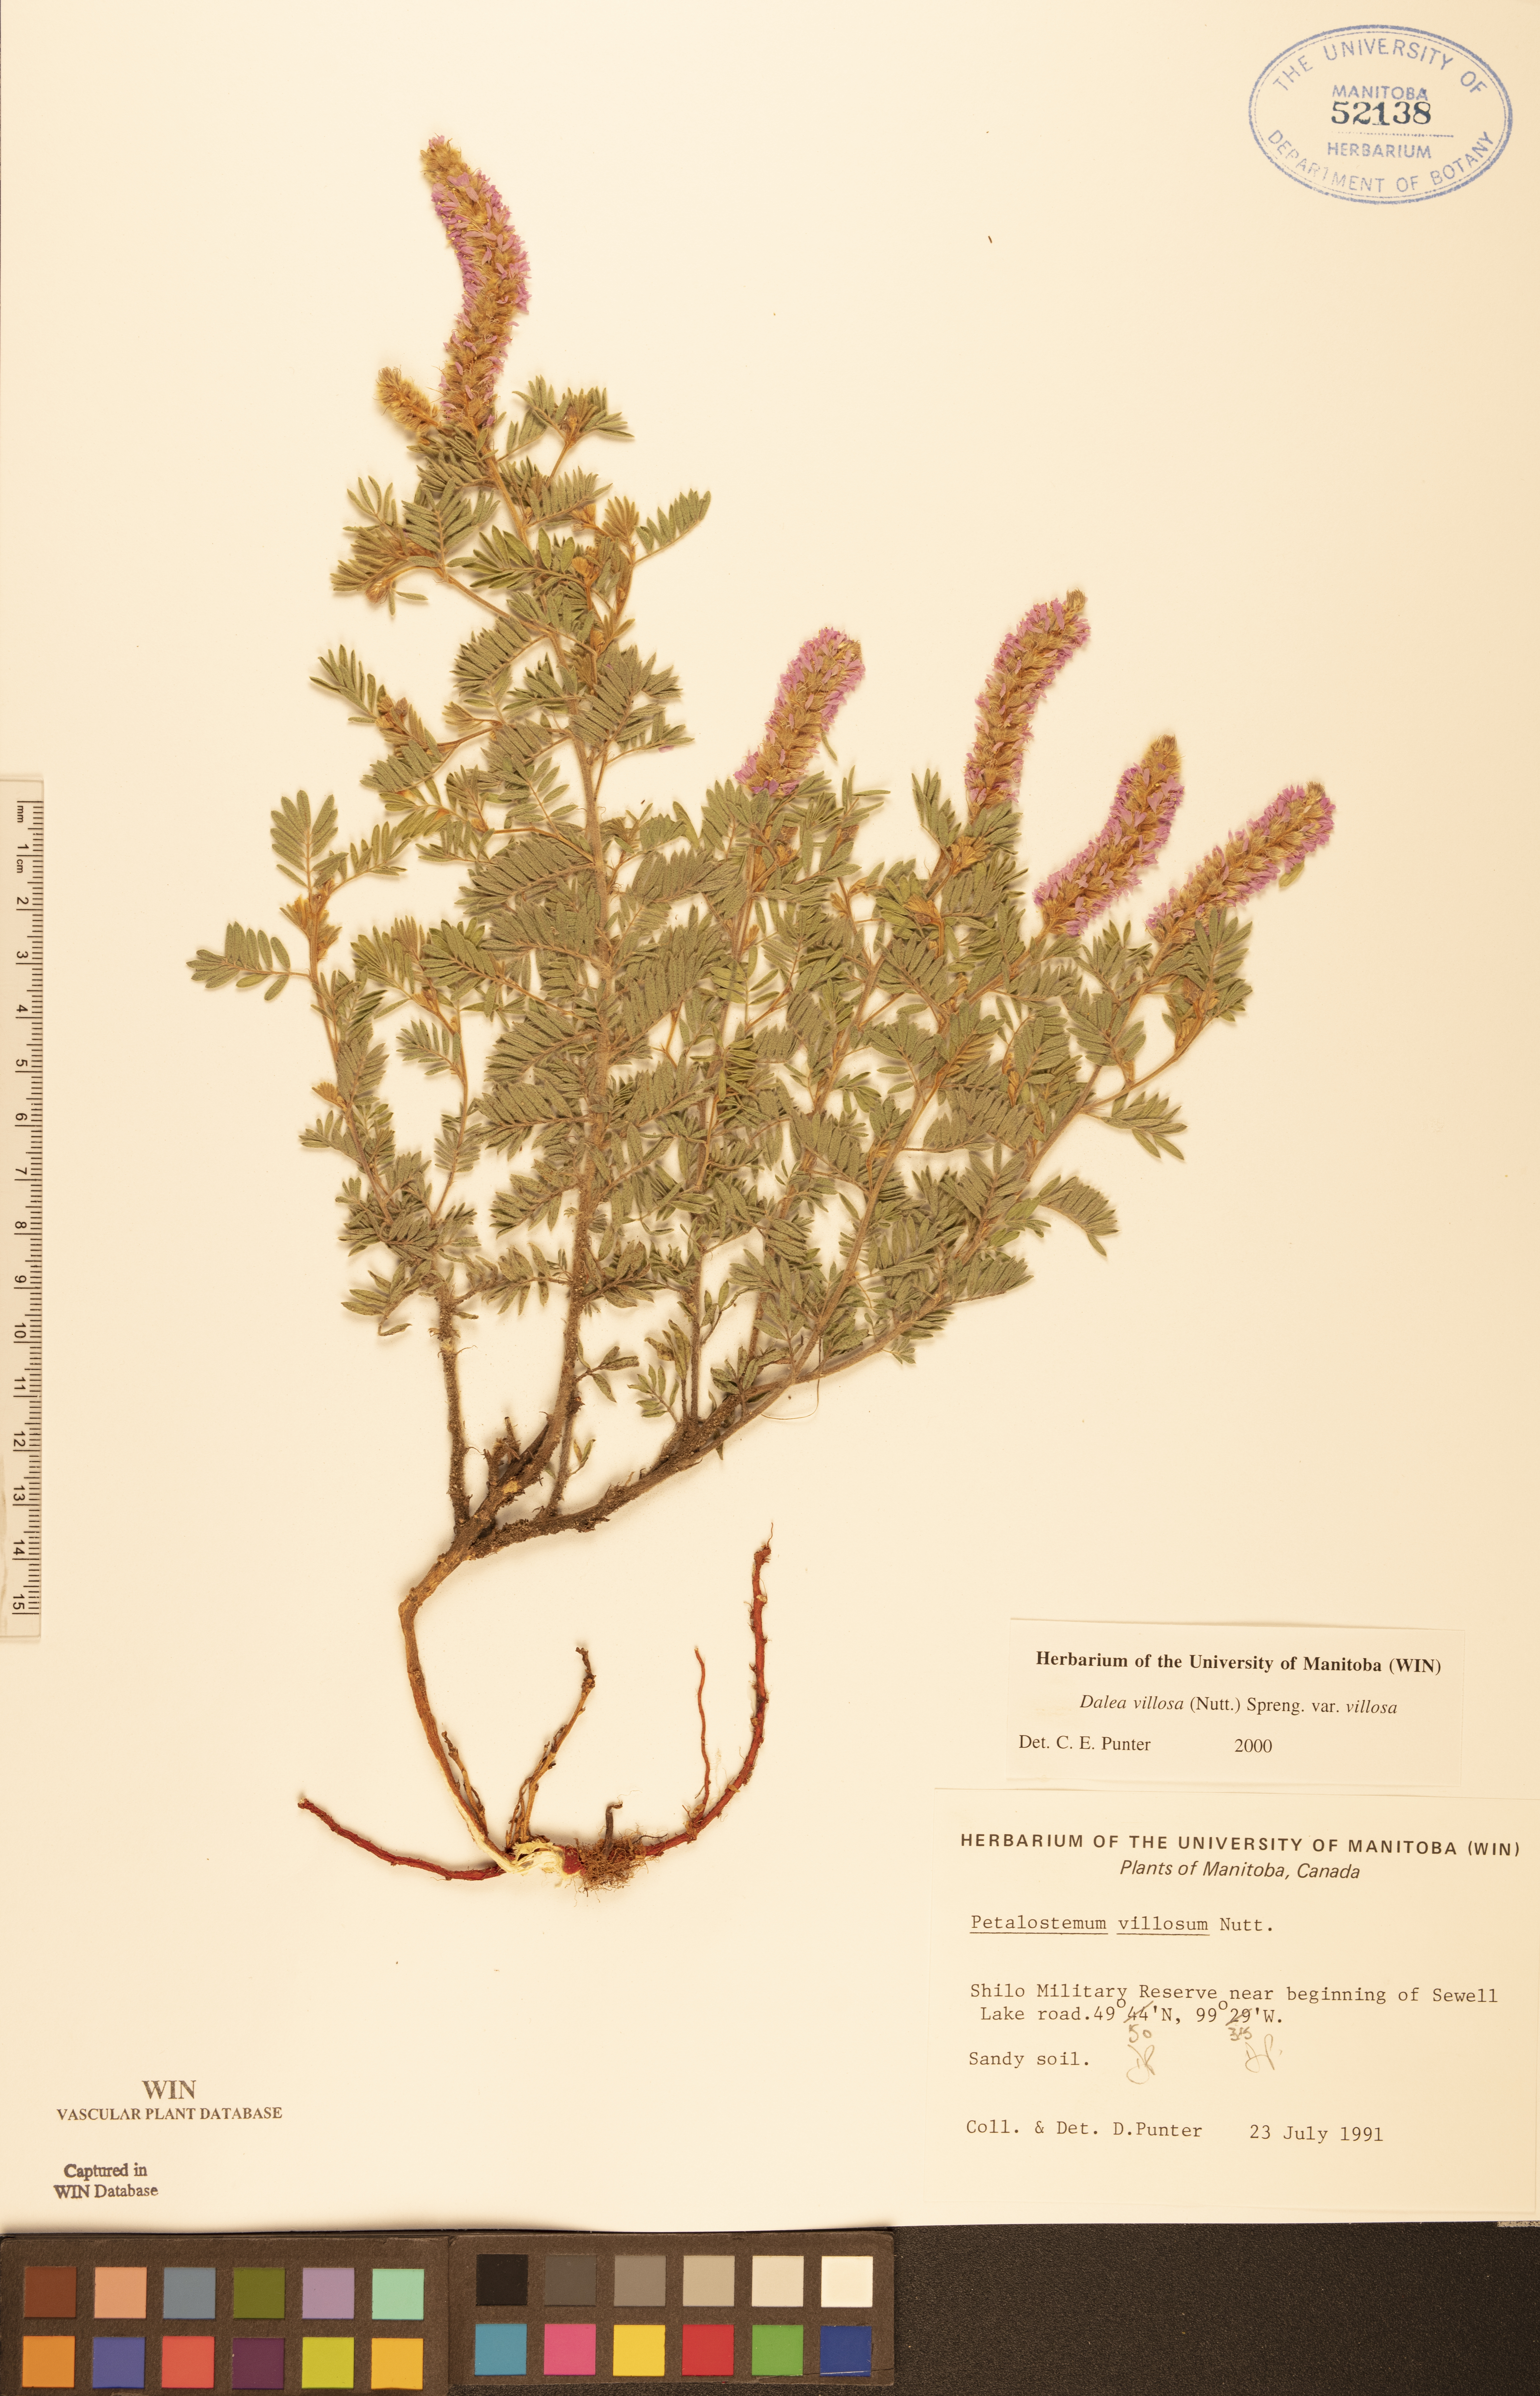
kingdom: Plantae
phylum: Tracheophyta
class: Magnoliopsida
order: Fabales
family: Fabaceae
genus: Dalea
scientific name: Dalea villosa
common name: Silky prairie-clover
